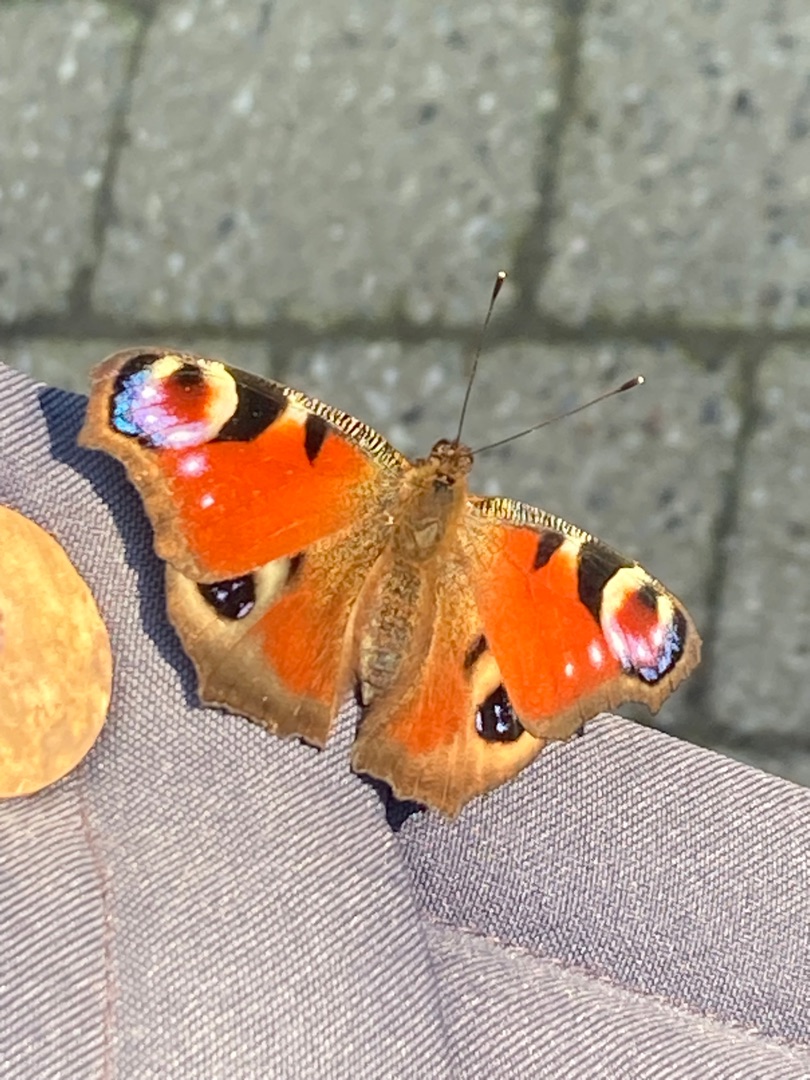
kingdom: Animalia
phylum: Arthropoda
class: Insecta
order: Lepidoptera
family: Nymphalidae
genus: Aglais
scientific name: Aglais io
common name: Dagpåfugleøje
